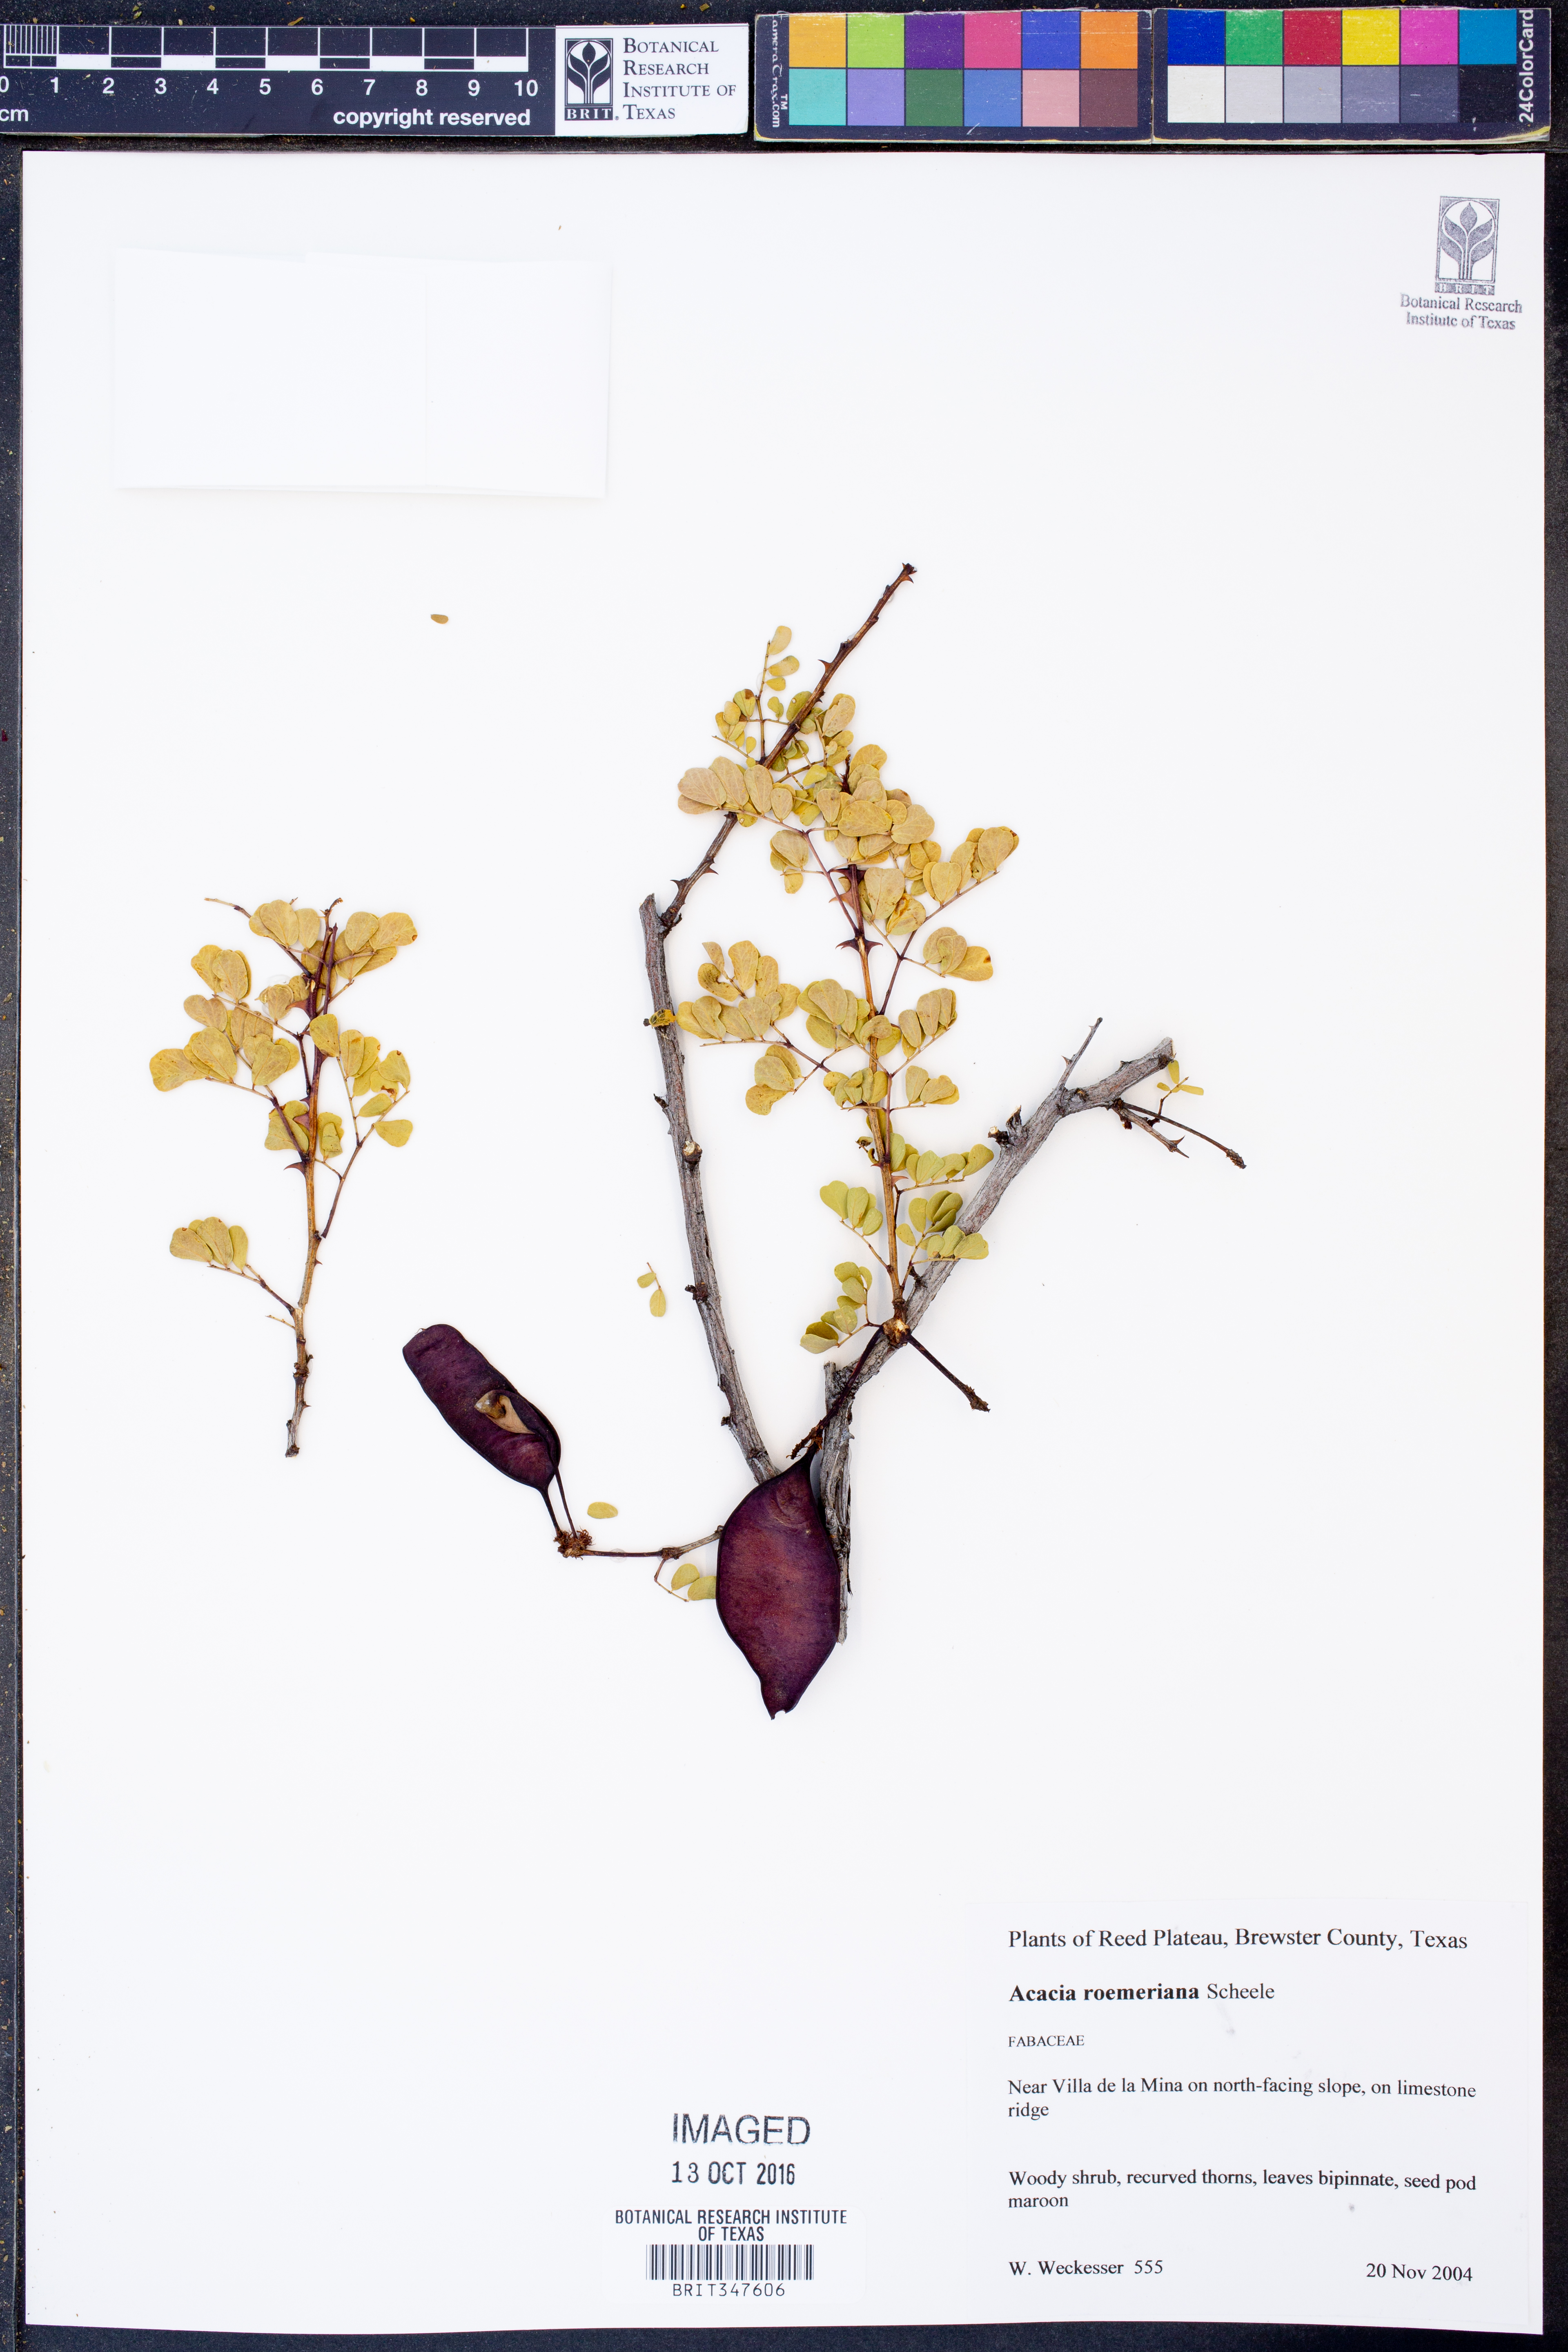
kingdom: Plantae
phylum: Tracheophyta
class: Magnoliopsida
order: Fabales
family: Fabaceae
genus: Senegalia
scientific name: Senegalia roemeriana
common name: Roemer's acacia
